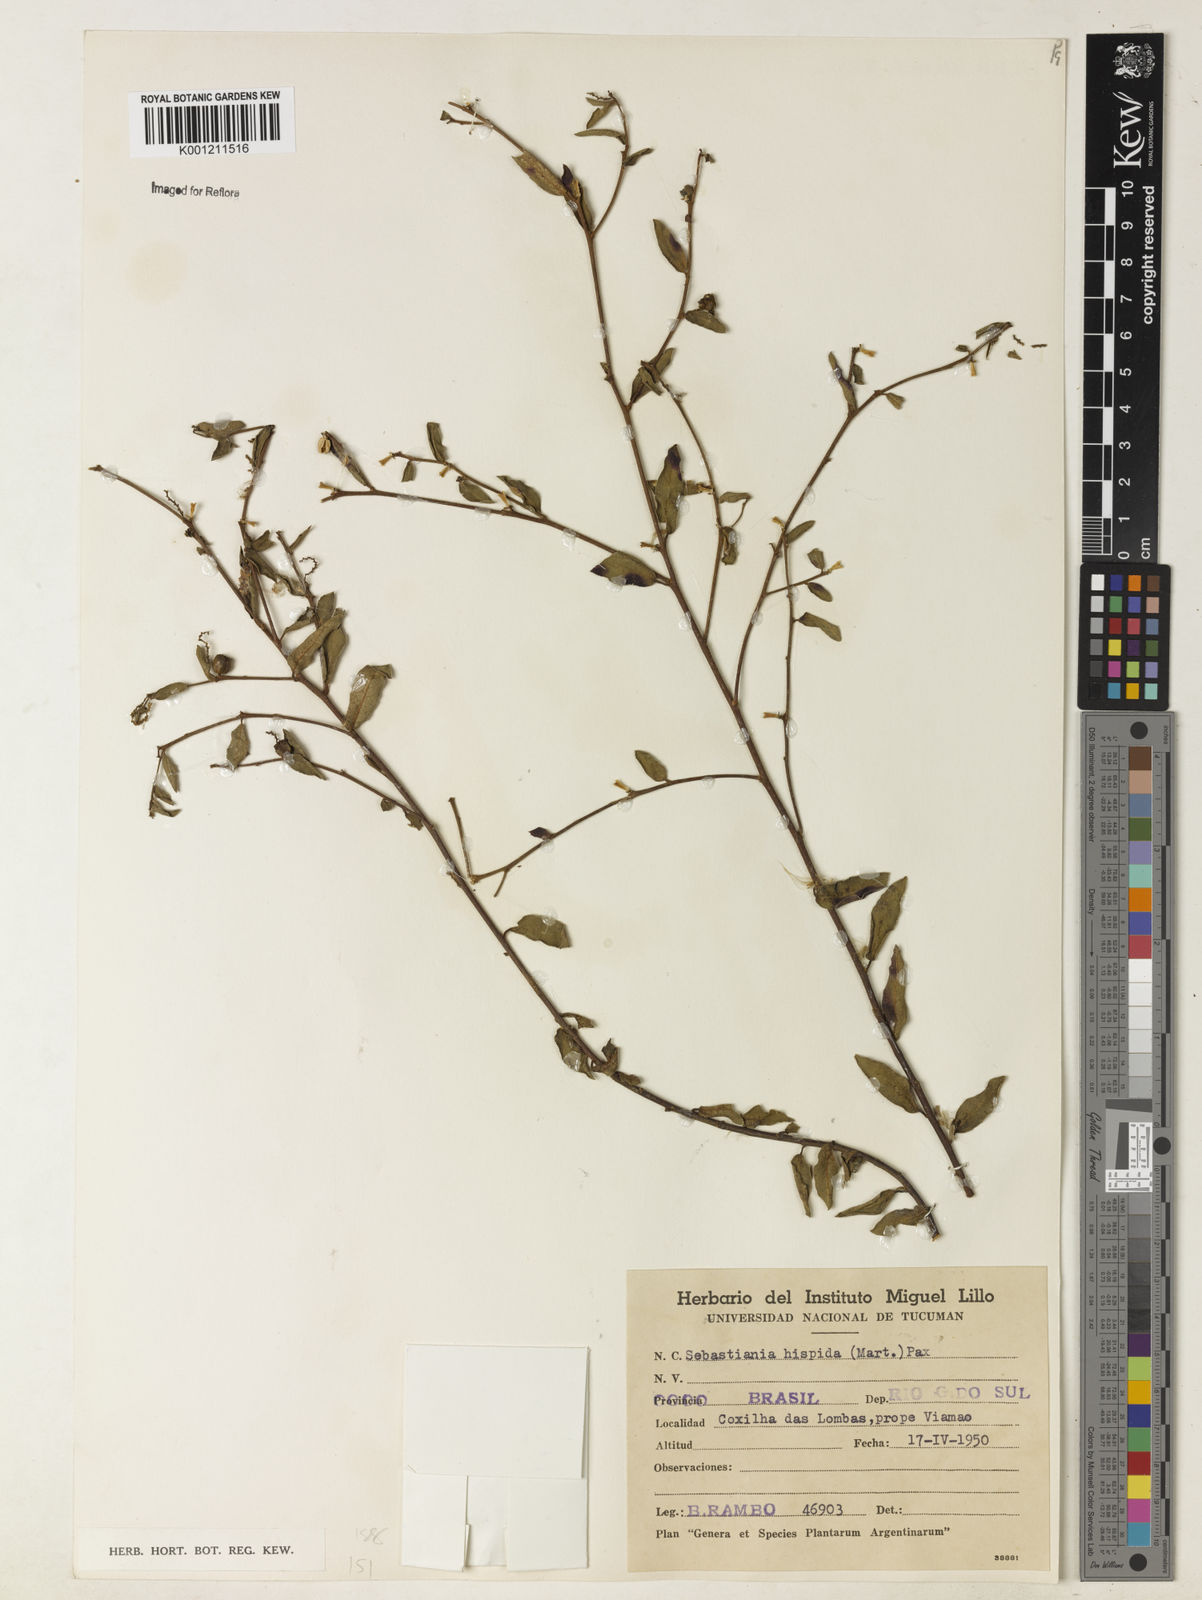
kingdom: Plantae
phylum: Tracheophyta
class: Magnoliopsida
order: Malpighiales
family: Euphorbiaceae
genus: Microstachys
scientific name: Microstachys hispida
